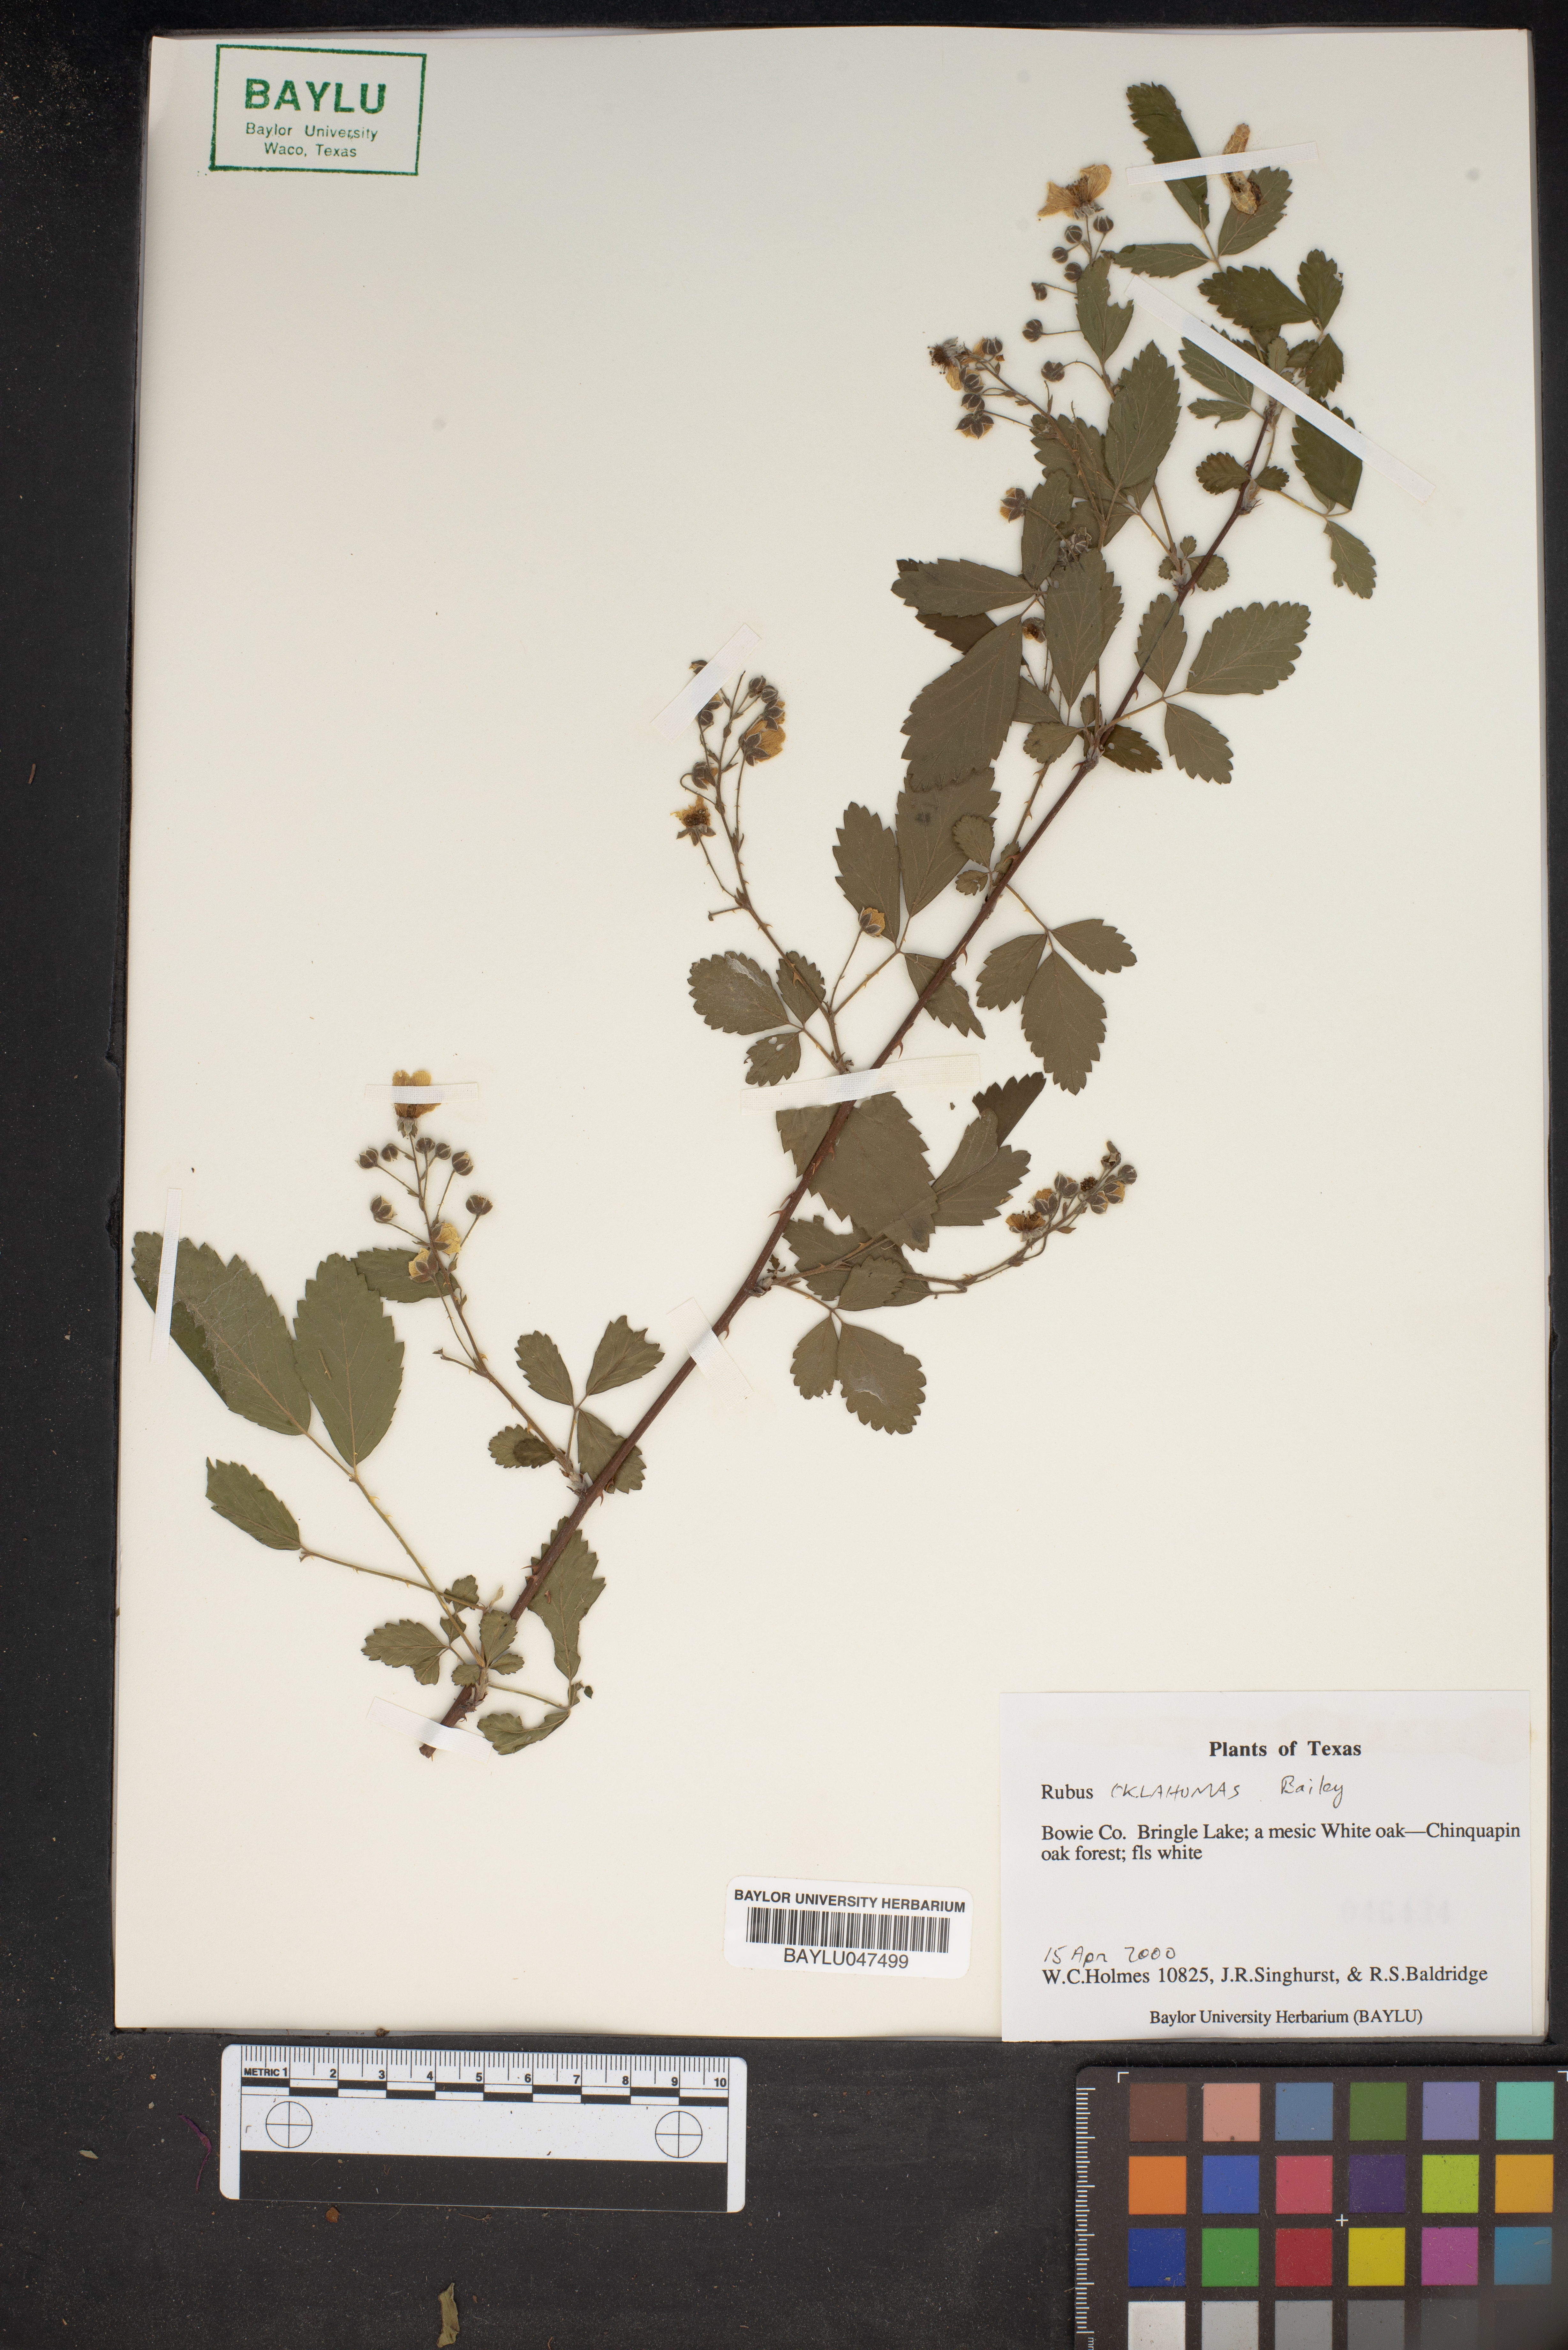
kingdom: Plantae
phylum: Tracheophyta
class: Magnoliopsida
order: Rosales
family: Rosaceae
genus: Rubus
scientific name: Rubus oklahomus
